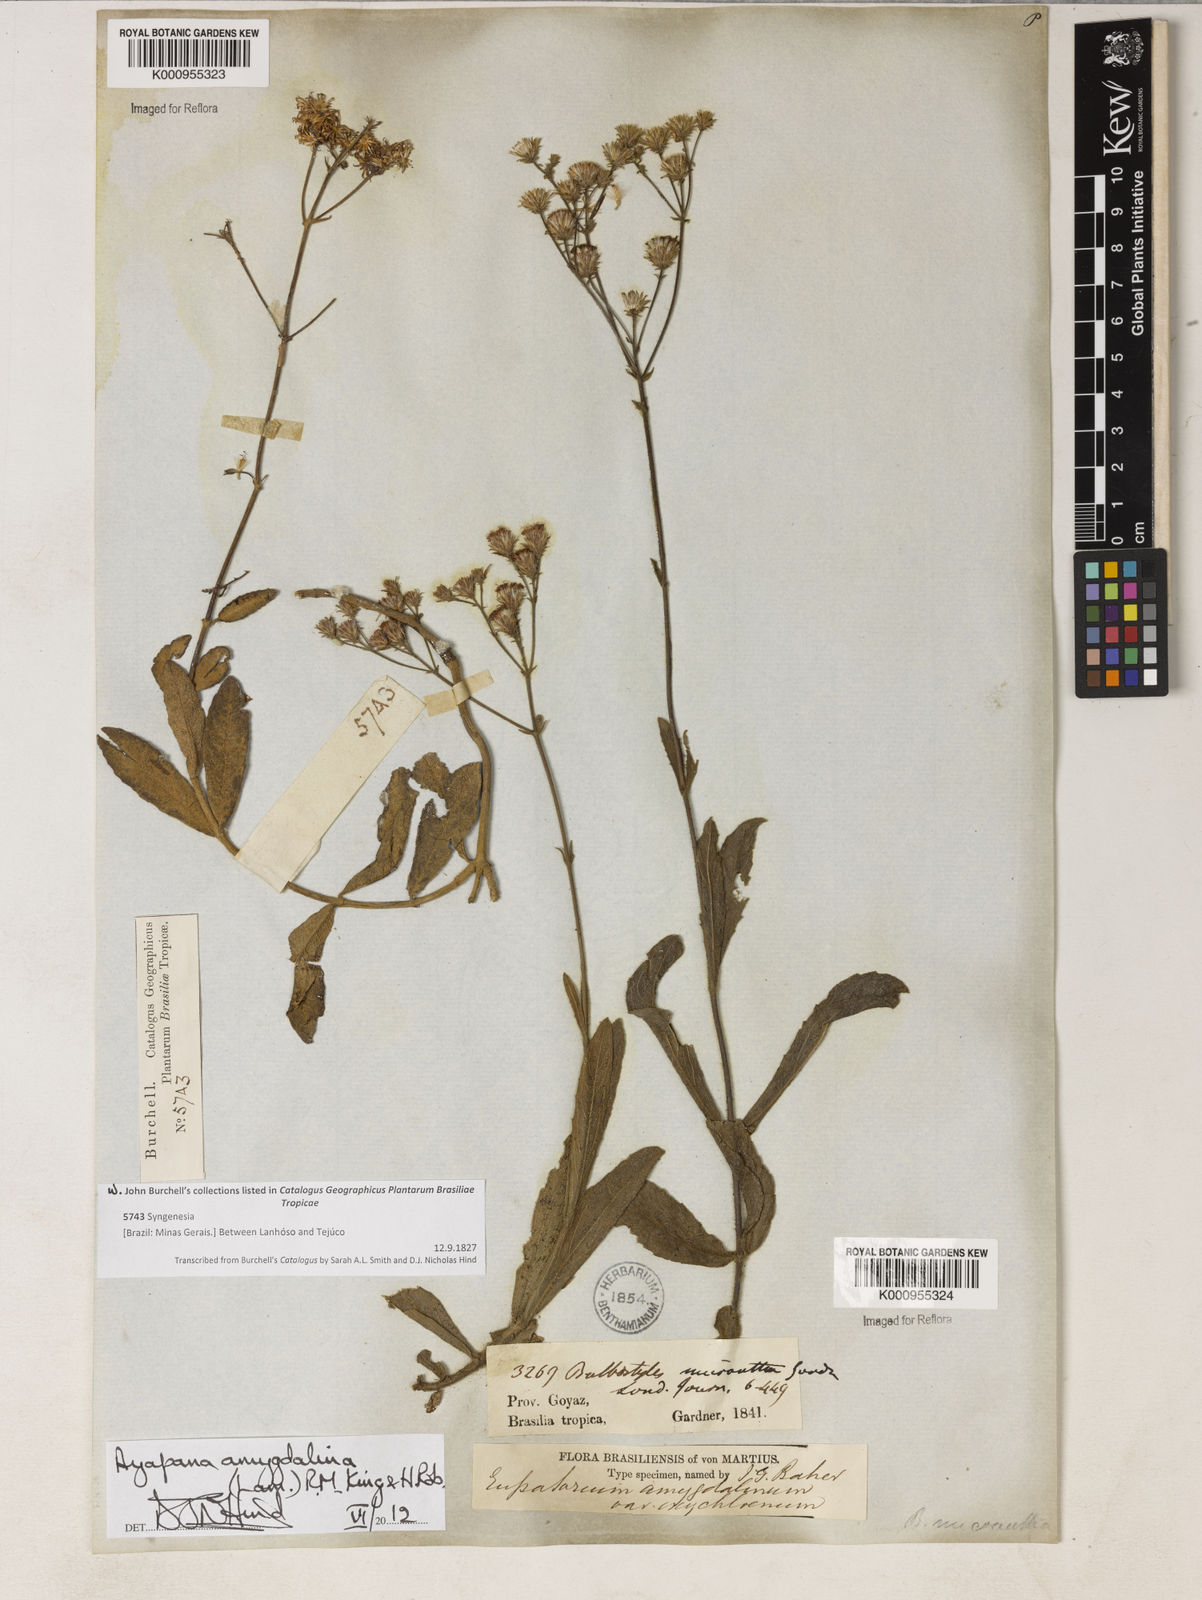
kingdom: Plantae
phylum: Tracheophyta
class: Magnoliopsida
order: Asterales
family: Asteraceae
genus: Ayapana
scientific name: Ayapana amygdalina
